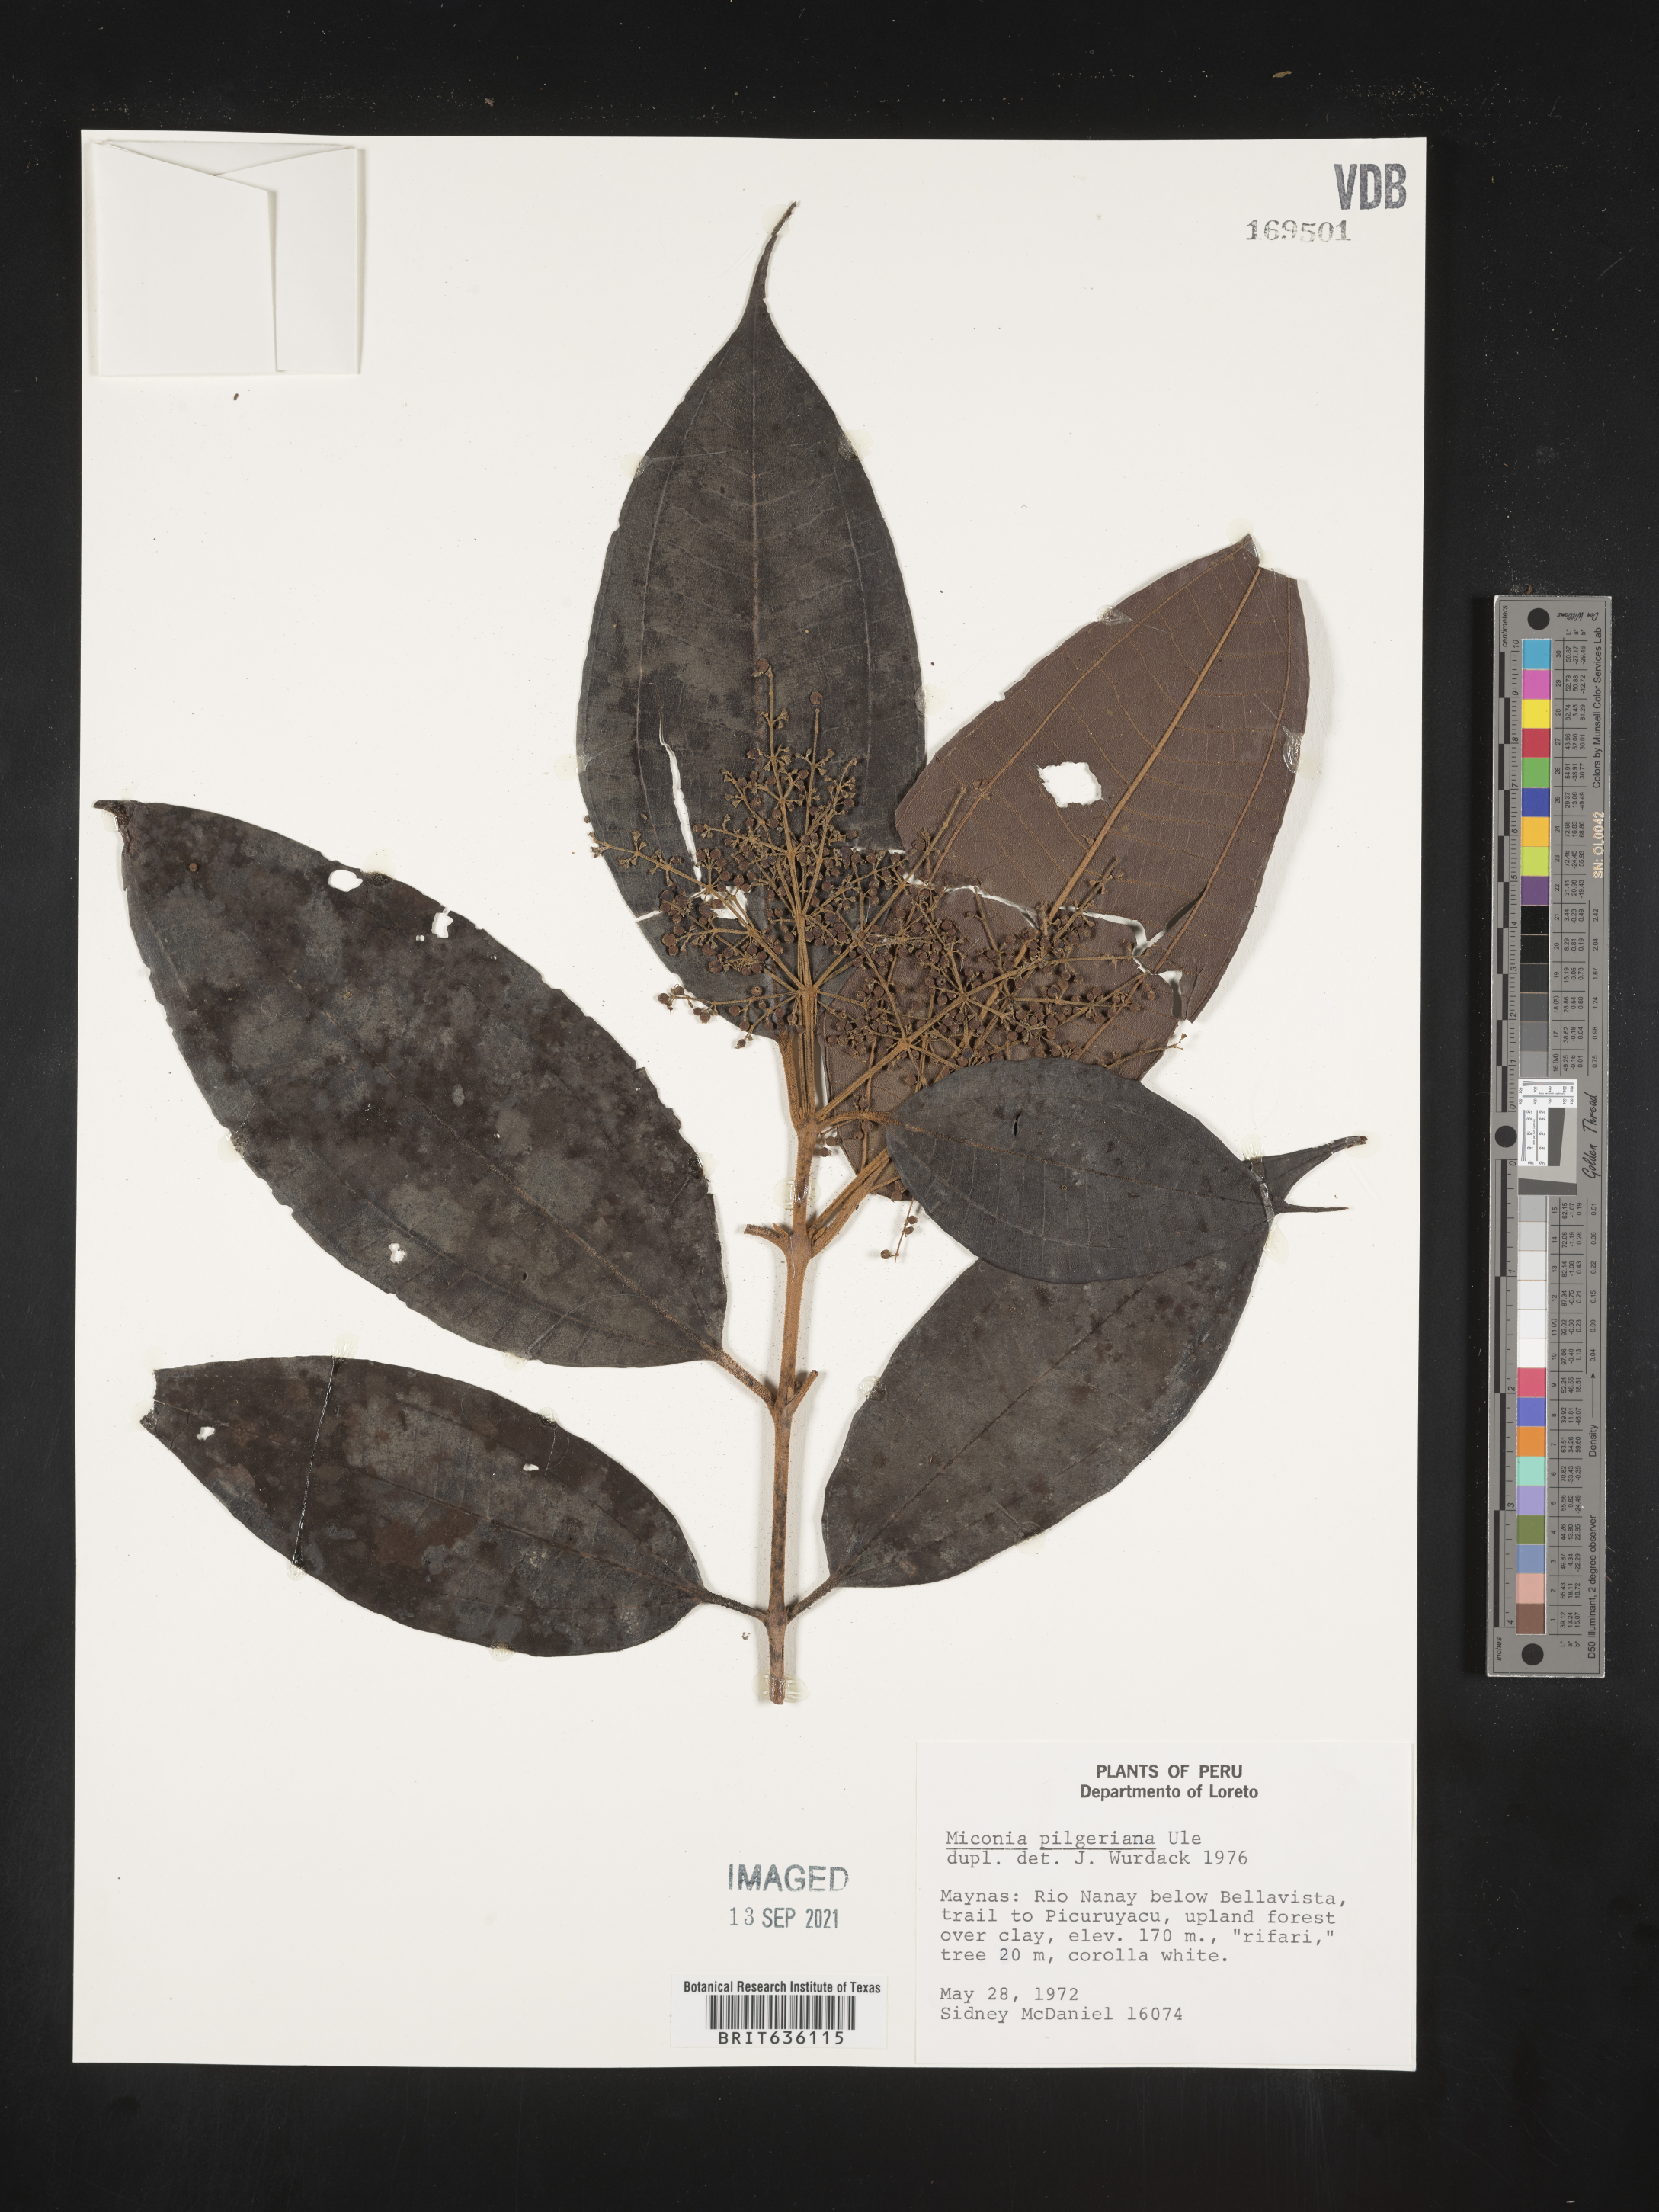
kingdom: Plantae
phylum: Tracheophyta
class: Magnoliopsida
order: Myrtales
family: Melastomataceae
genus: Miconia
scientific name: Miconia
